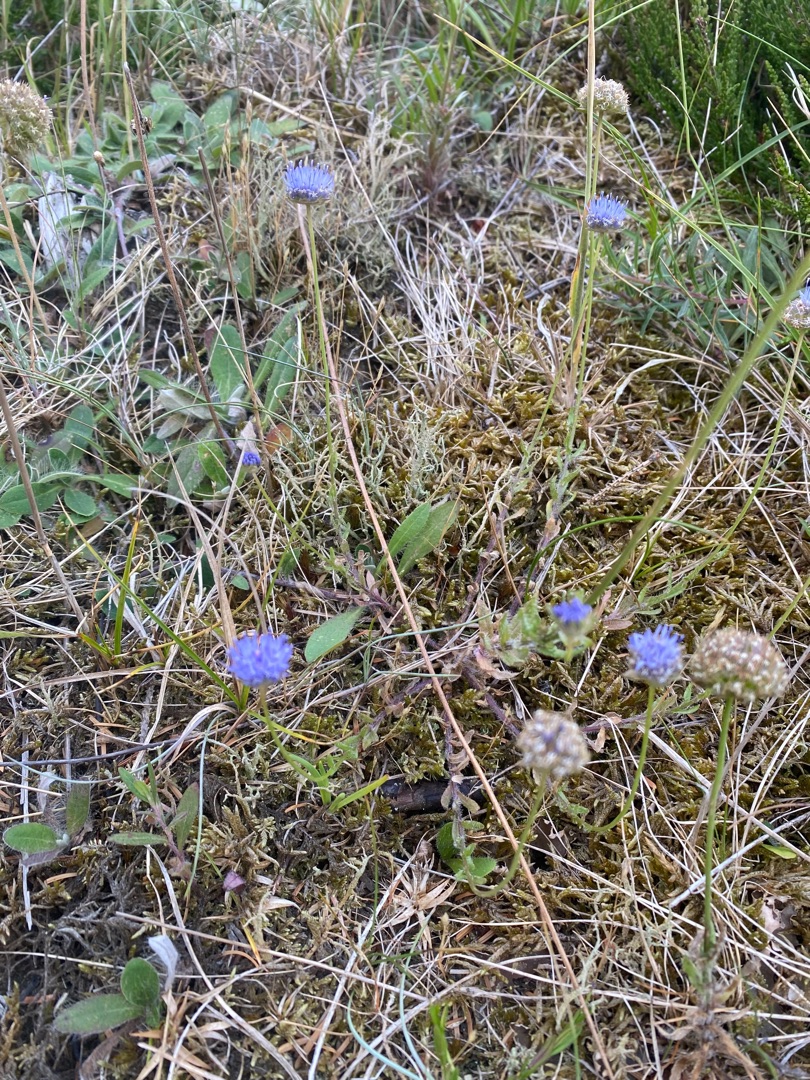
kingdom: Plantae
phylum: Tracheophyta
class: Magnoliopsida
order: Asterales
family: Campanulaceae
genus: Jasione
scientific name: Jasione montana
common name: Blåmunke
